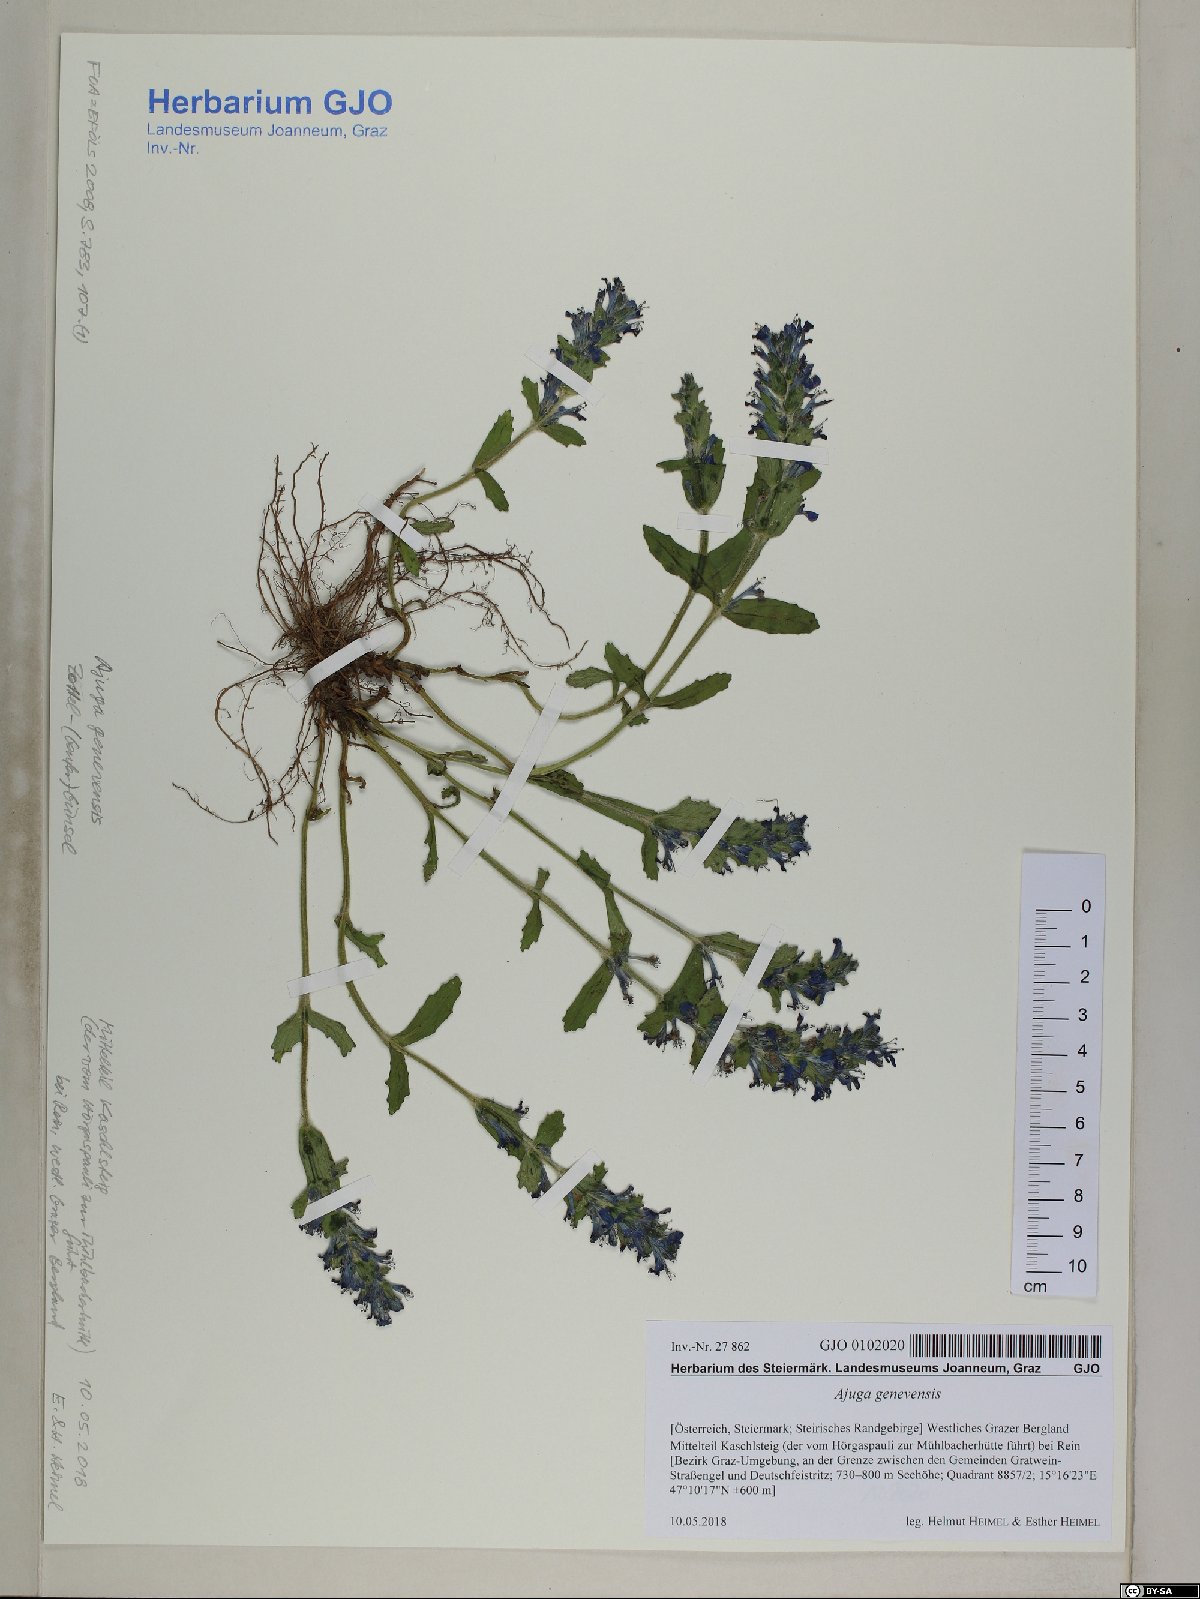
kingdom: Plantae
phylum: Tracheophyta
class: Magnoliopsida
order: Lamiales
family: Lamiaceae
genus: Ajuga
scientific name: Ajuga genevensis
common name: Blue bugle
